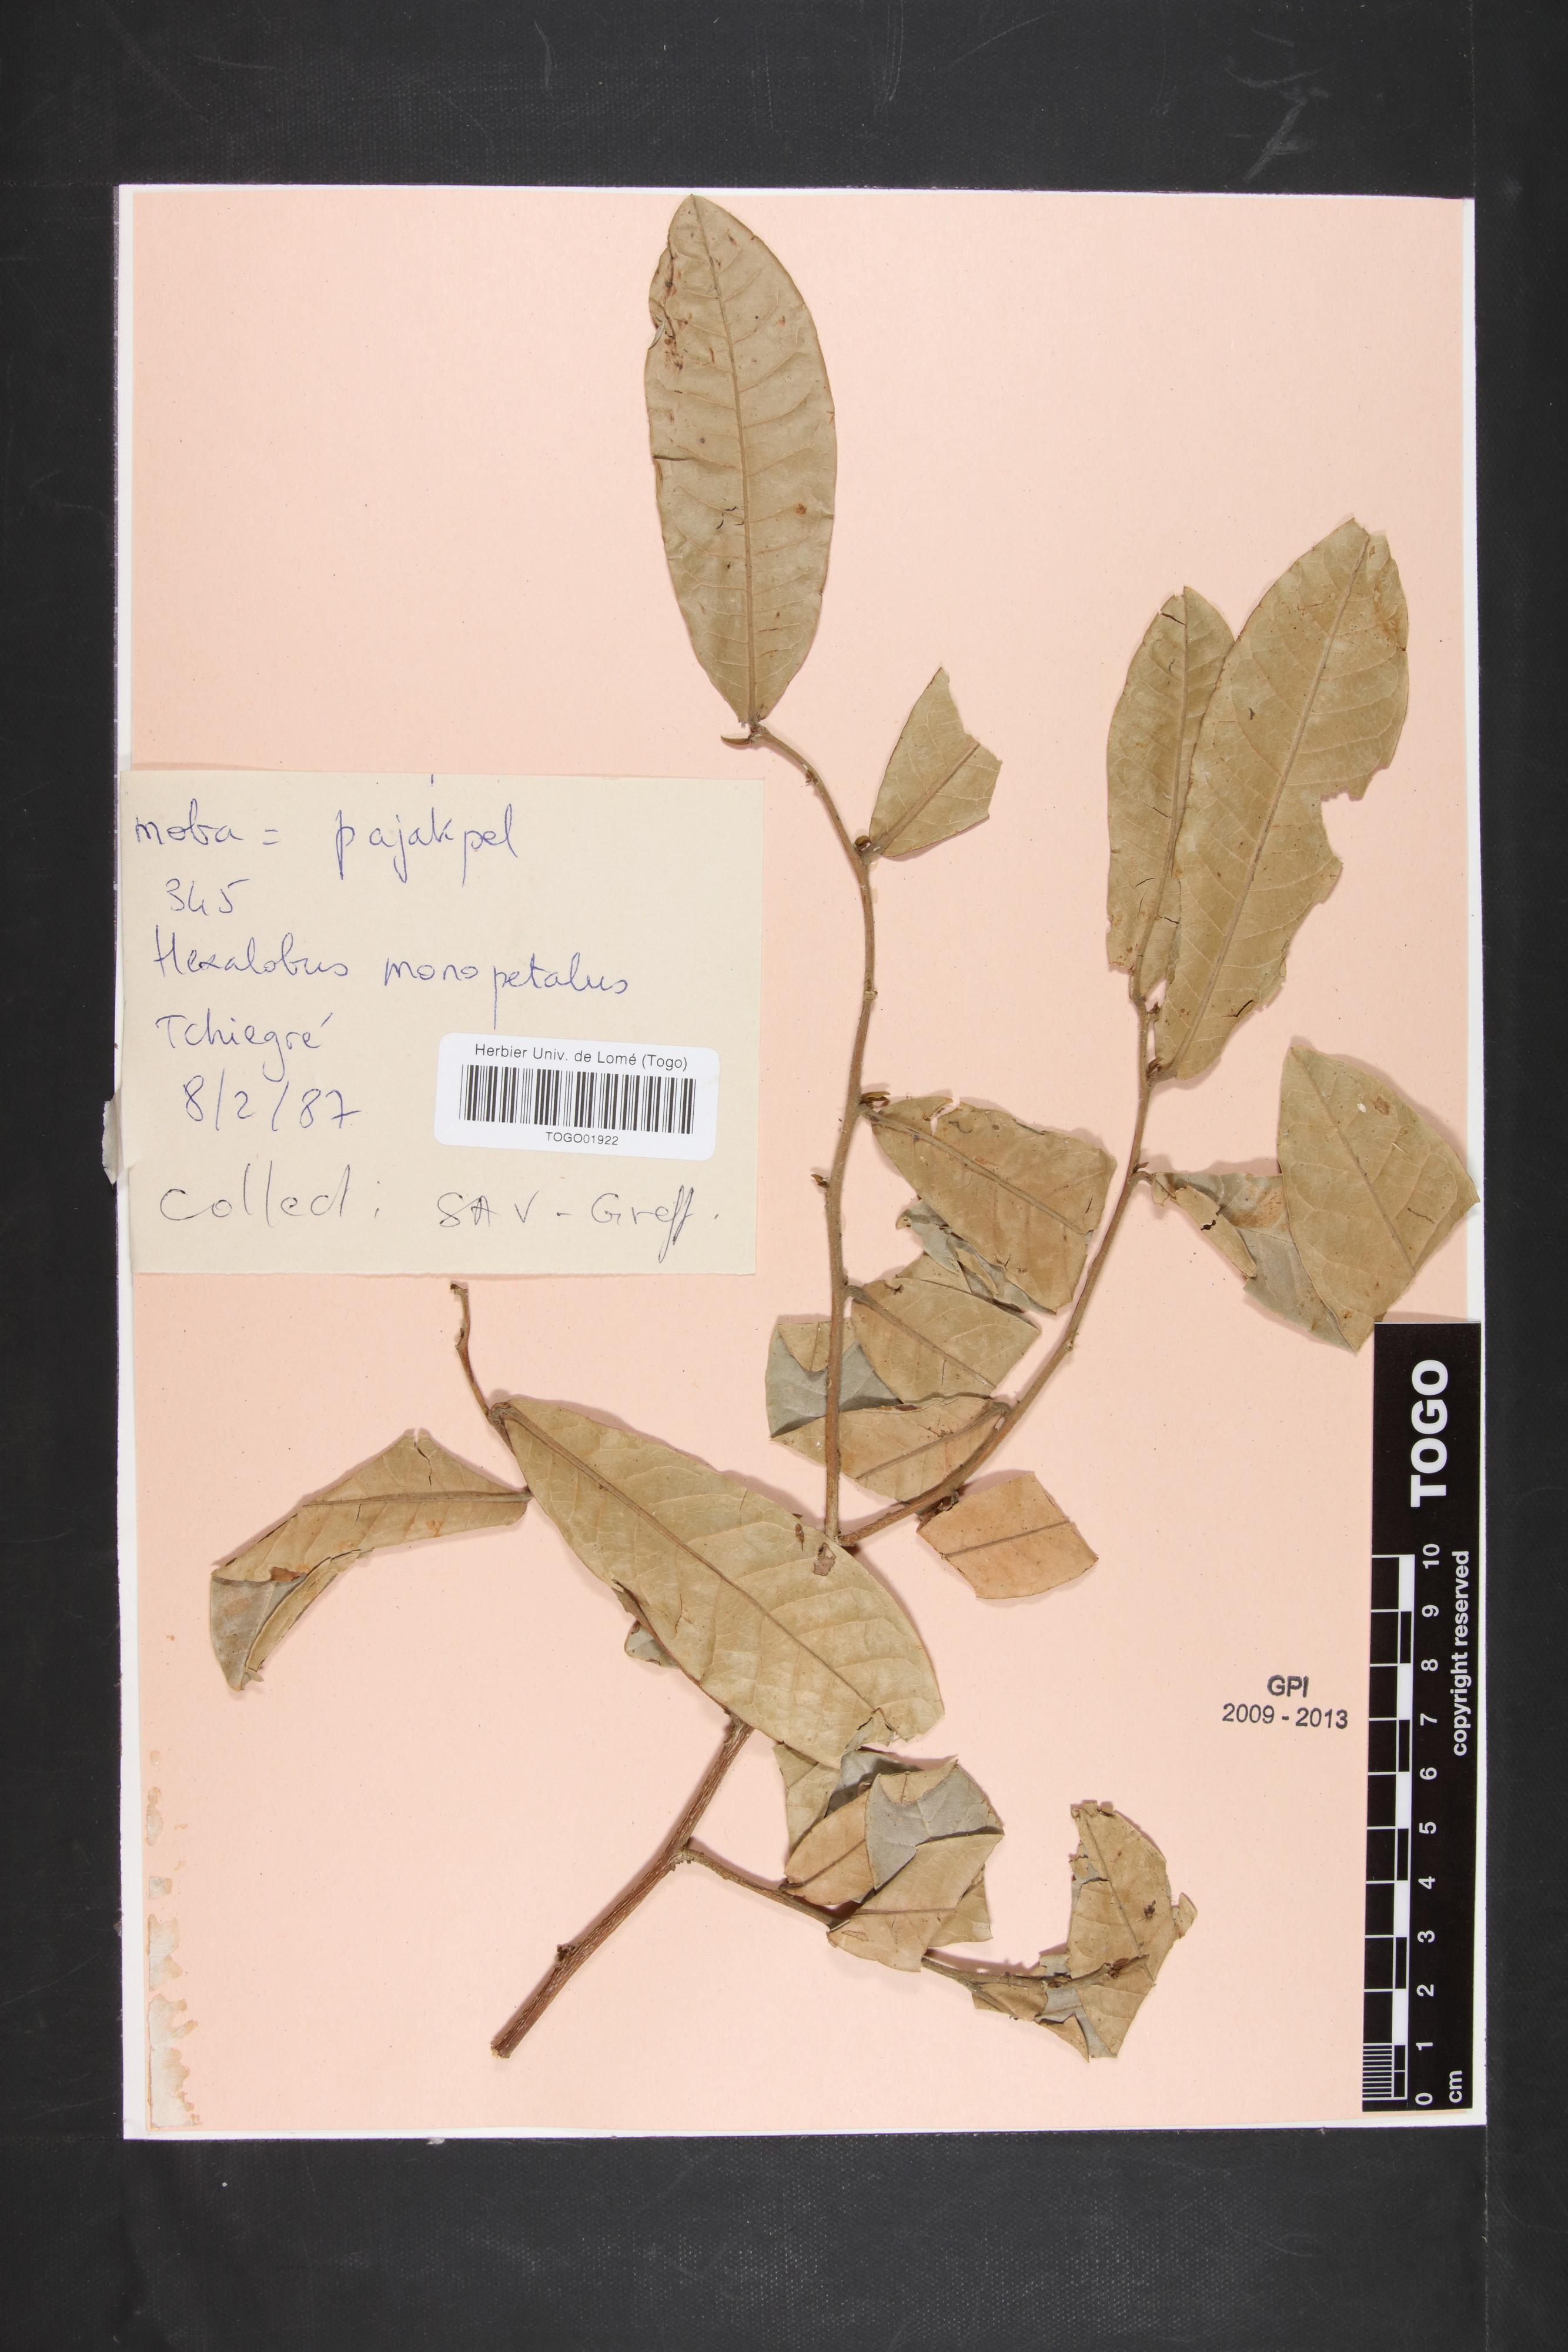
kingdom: Plantae
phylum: Tracheophyta
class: Magnoliopsida
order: Magnoliales
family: Annonaceae
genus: Hexalobus
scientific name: Hexalobus monopetalus
